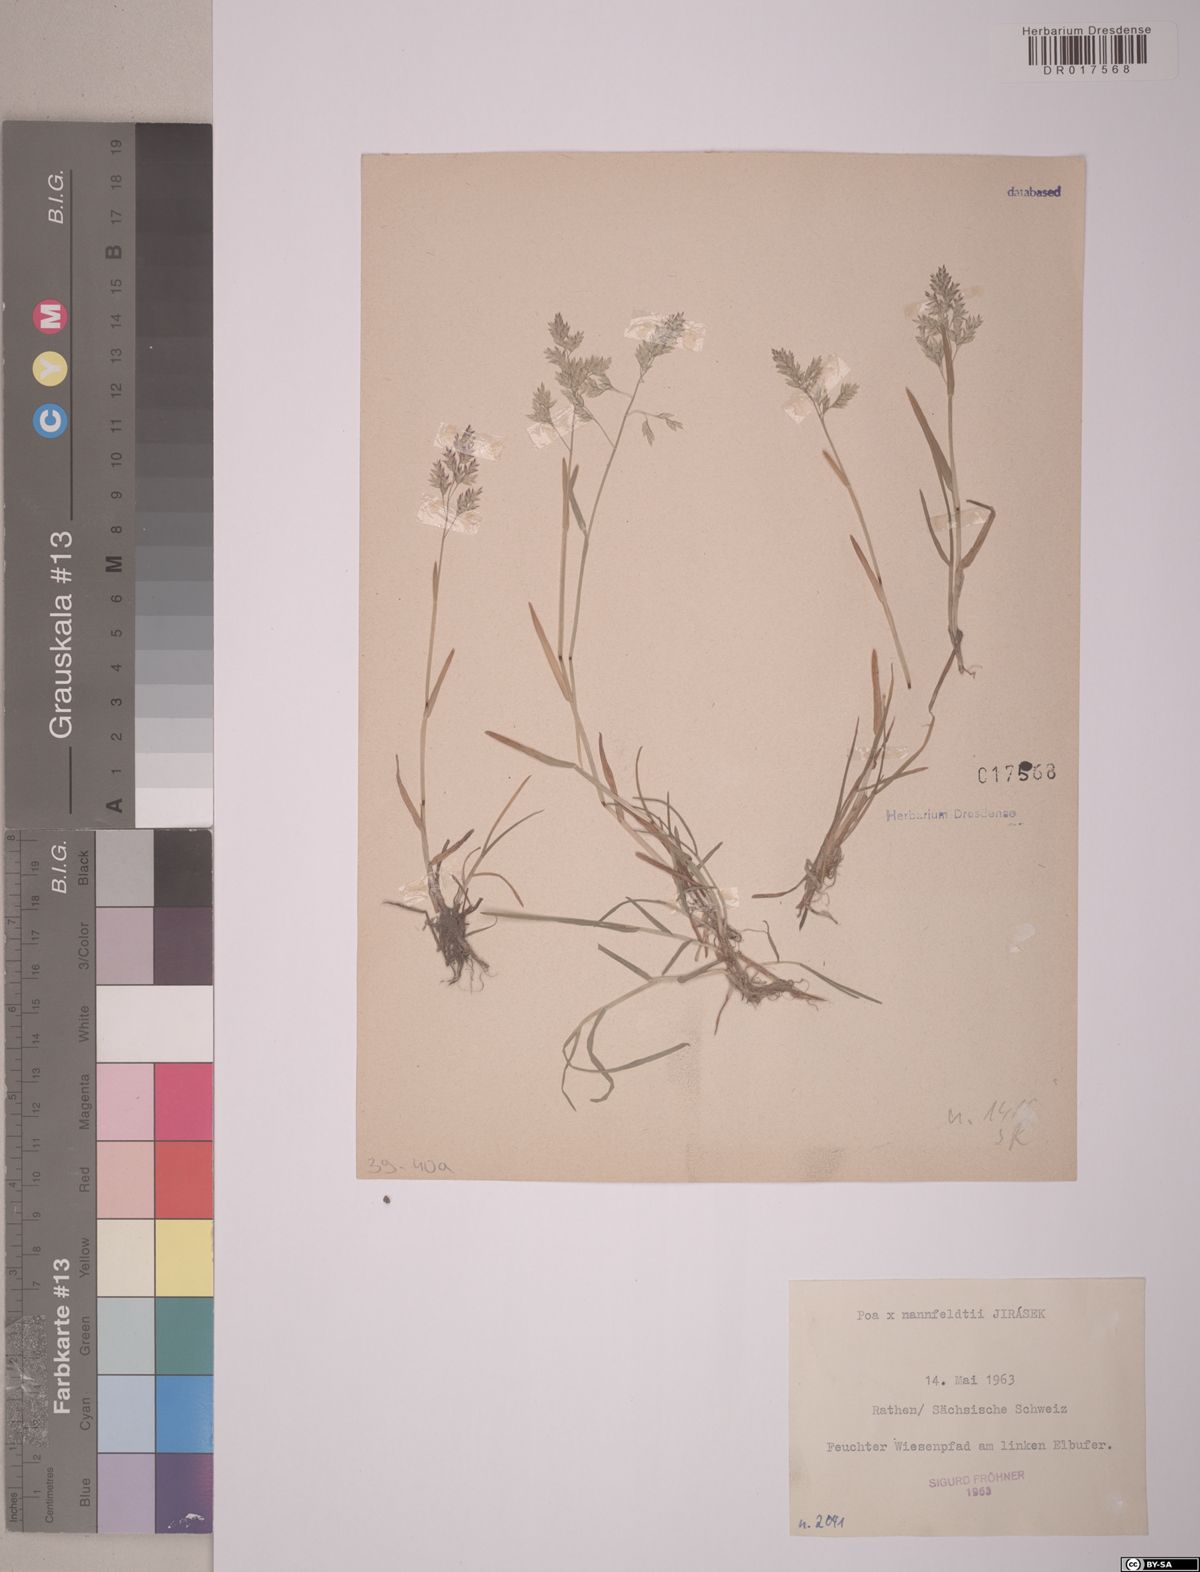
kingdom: Plantae
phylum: Tracheophyta
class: Liliopsida
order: Poales
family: Poaceae
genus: Poa
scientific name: Poa nannfeldtii
